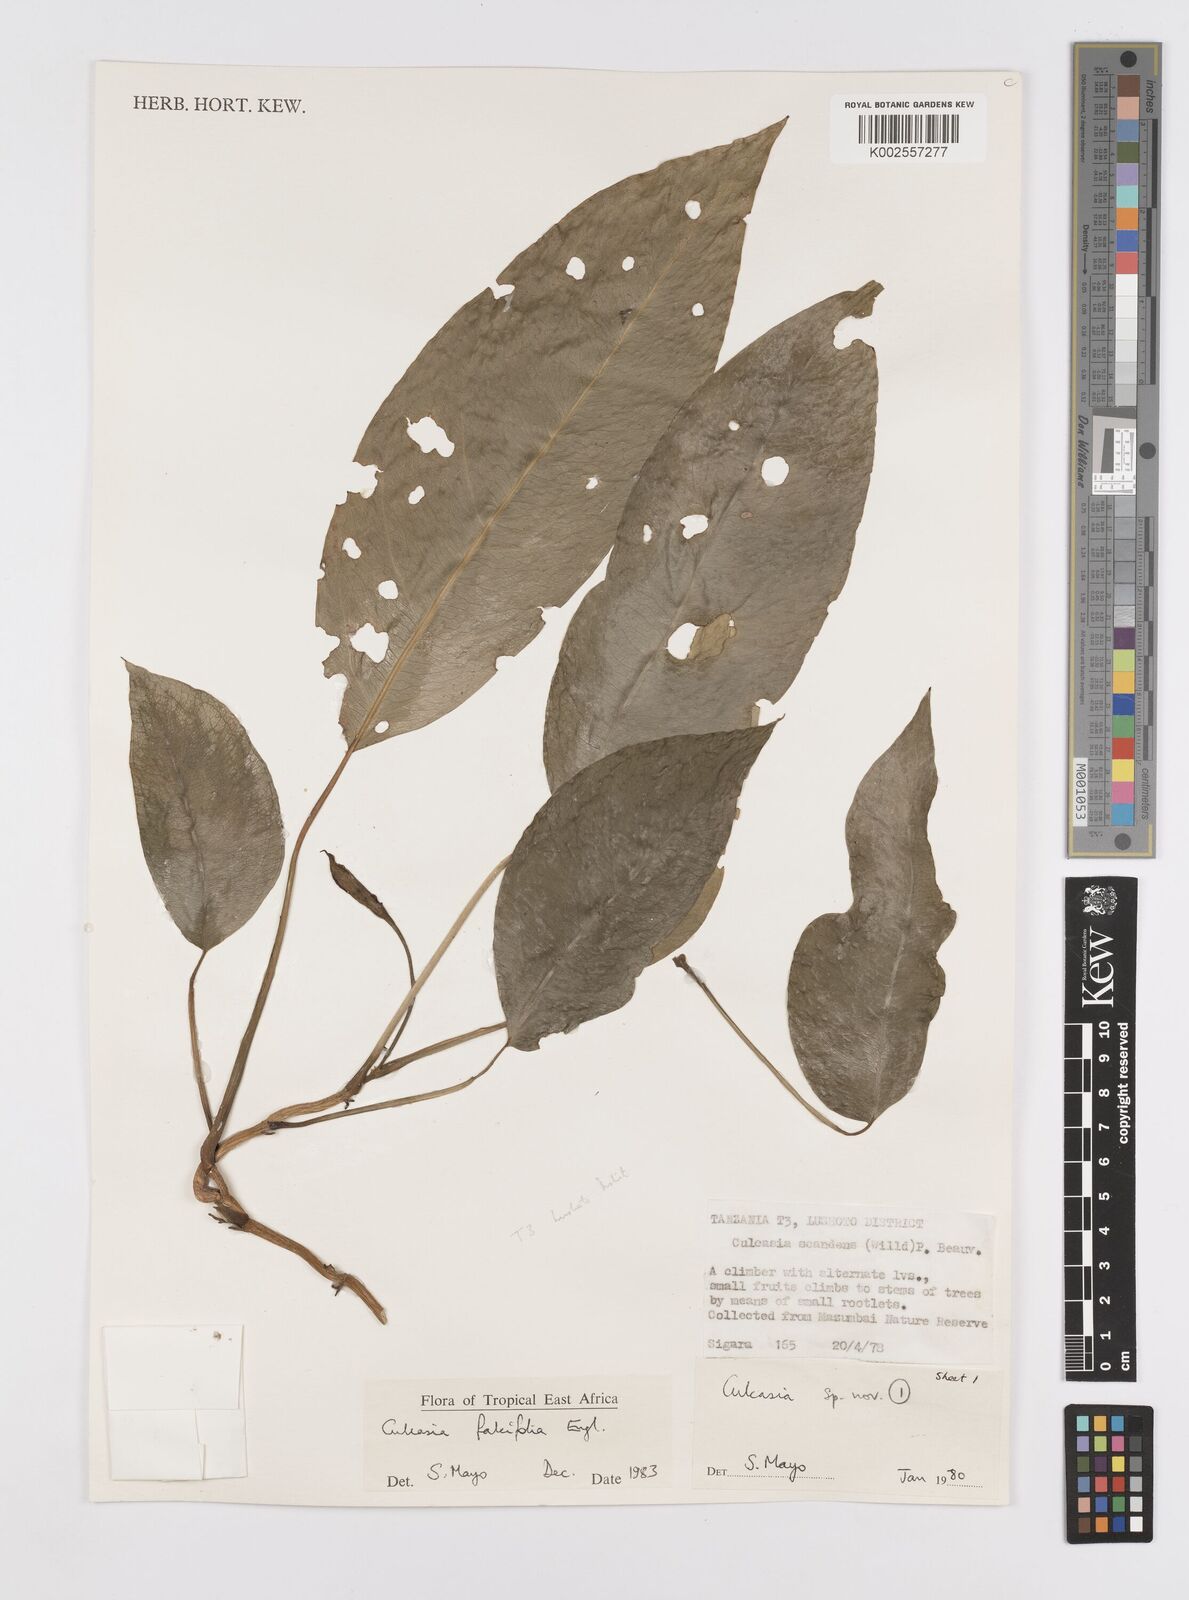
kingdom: Plantae
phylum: Tracheophyta
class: Liliopsida
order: Alismatales
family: Araceae
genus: Culcasia
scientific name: Culcasia falcifolia
